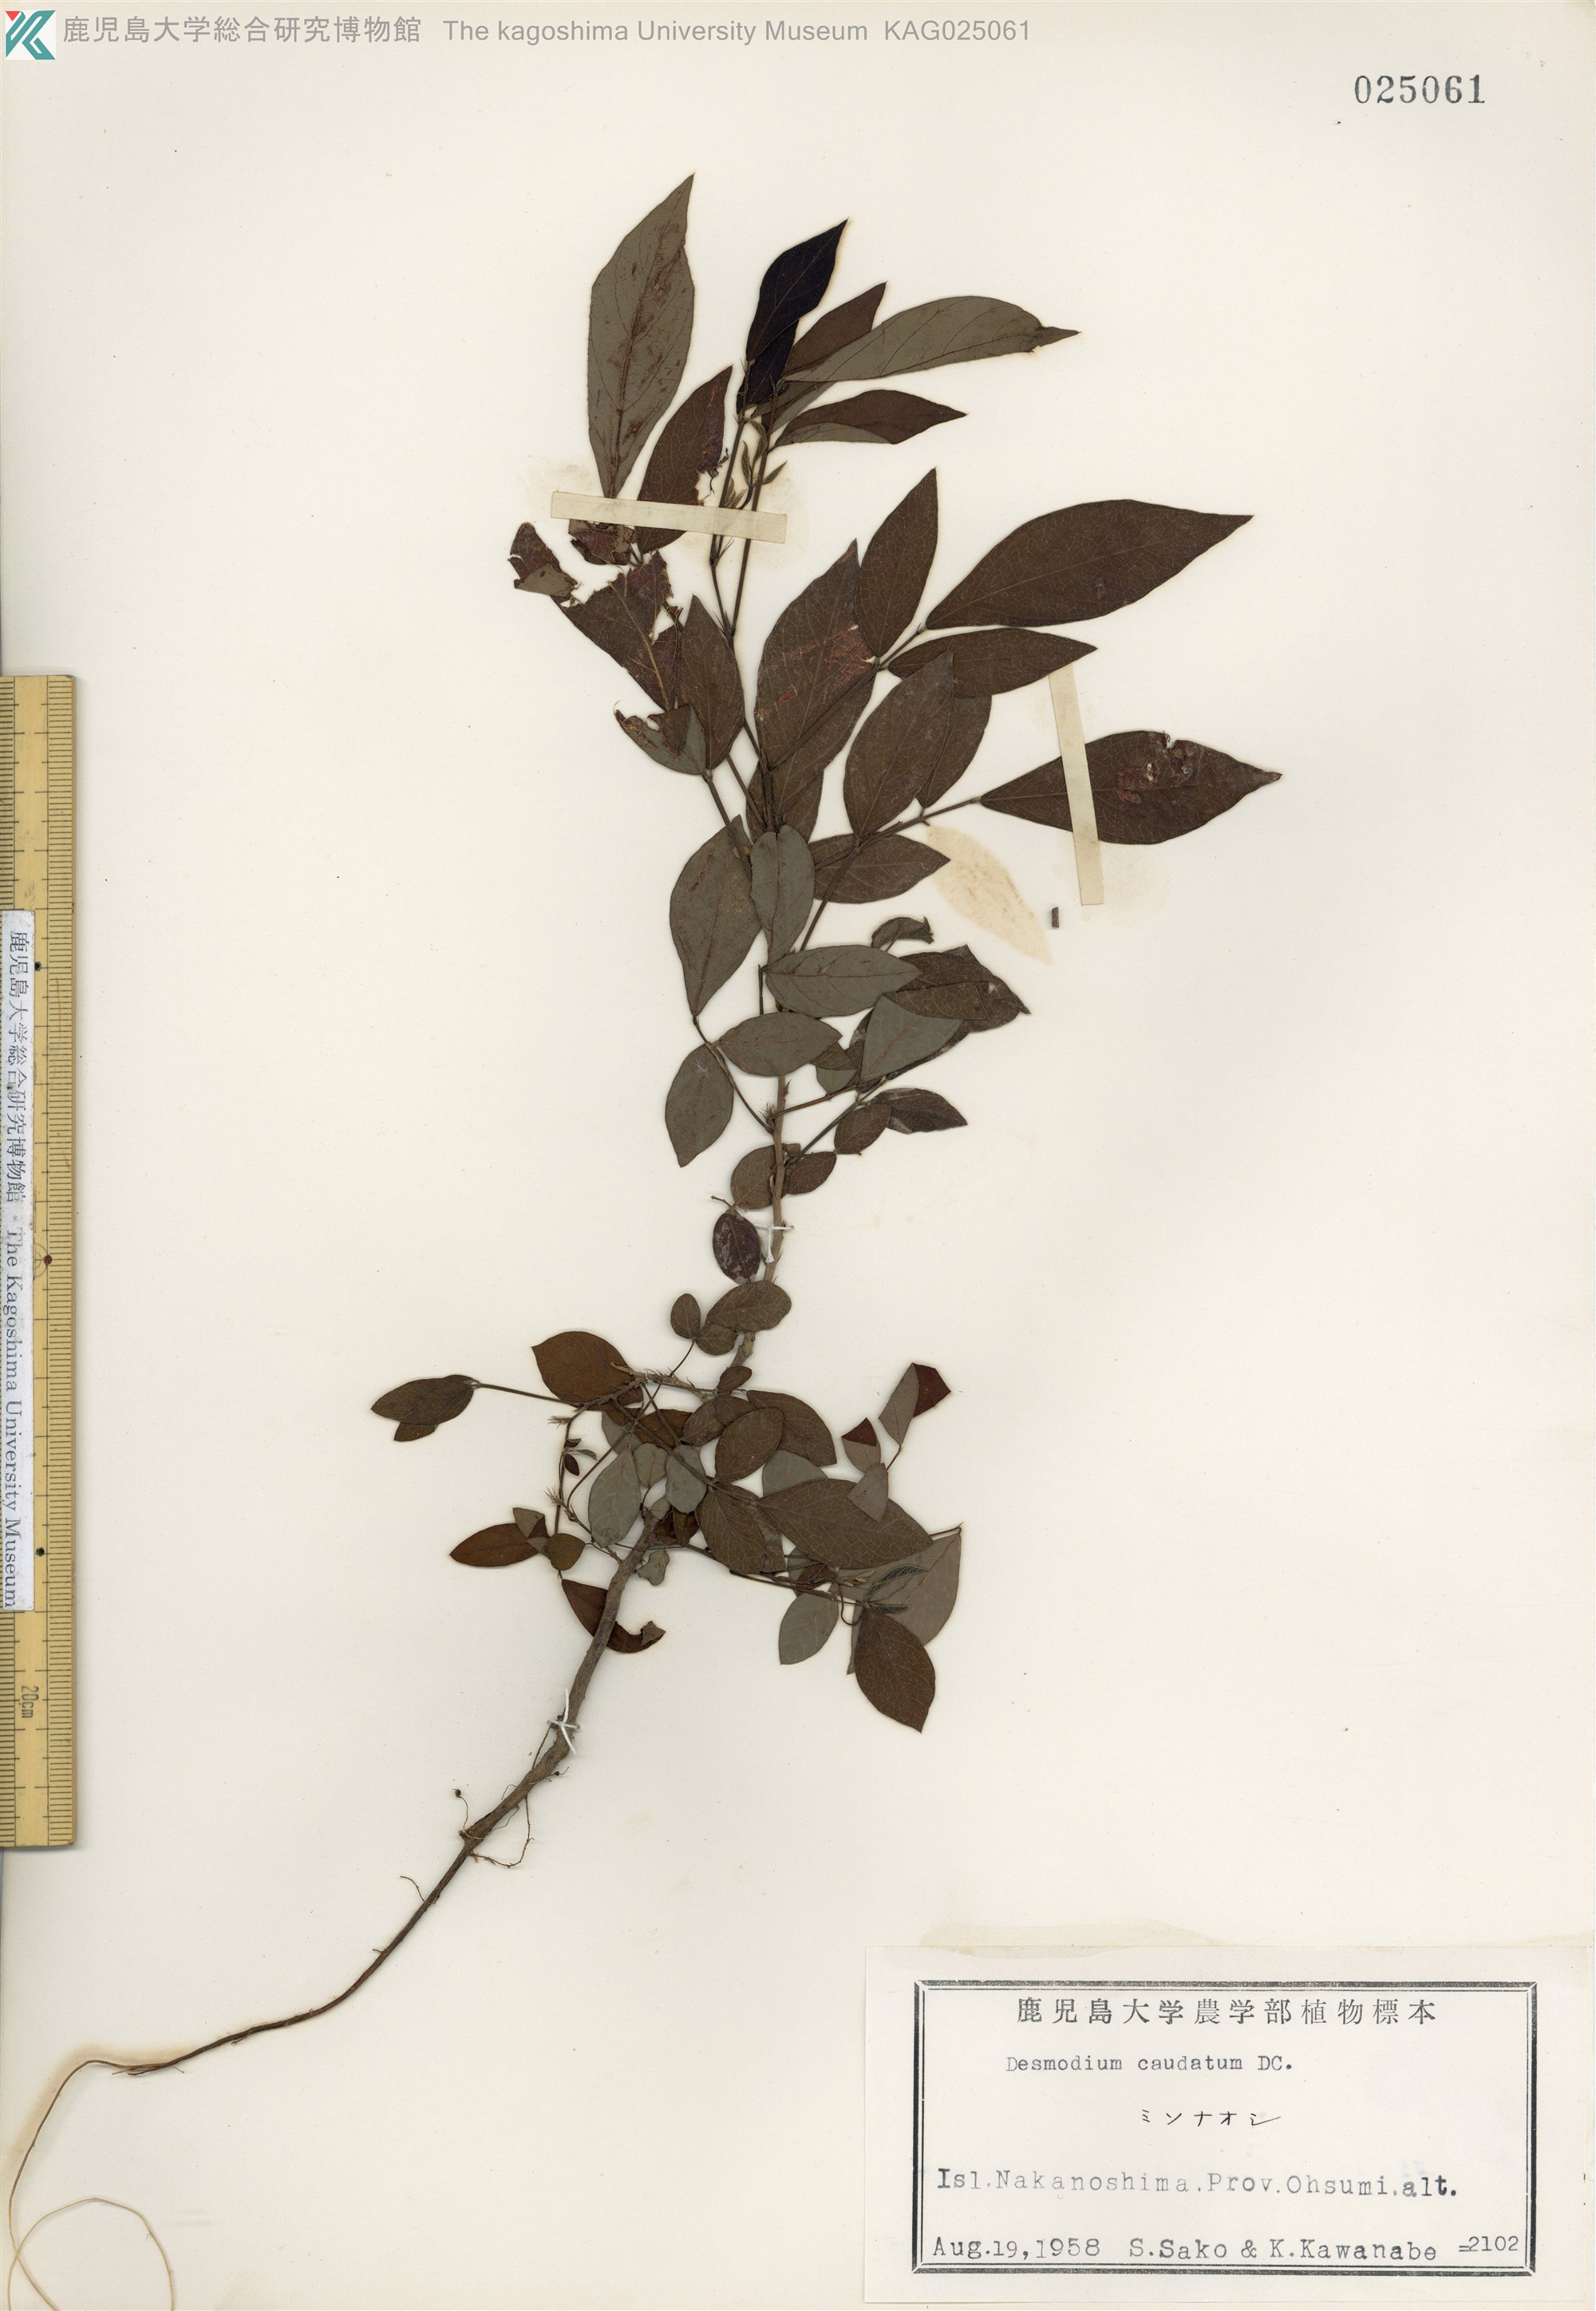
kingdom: Plantae
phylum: Tracheophyta
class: Magnoliopsida
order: Fabales
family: Fabaceae
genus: Ohwia
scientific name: Ohwia caudata
